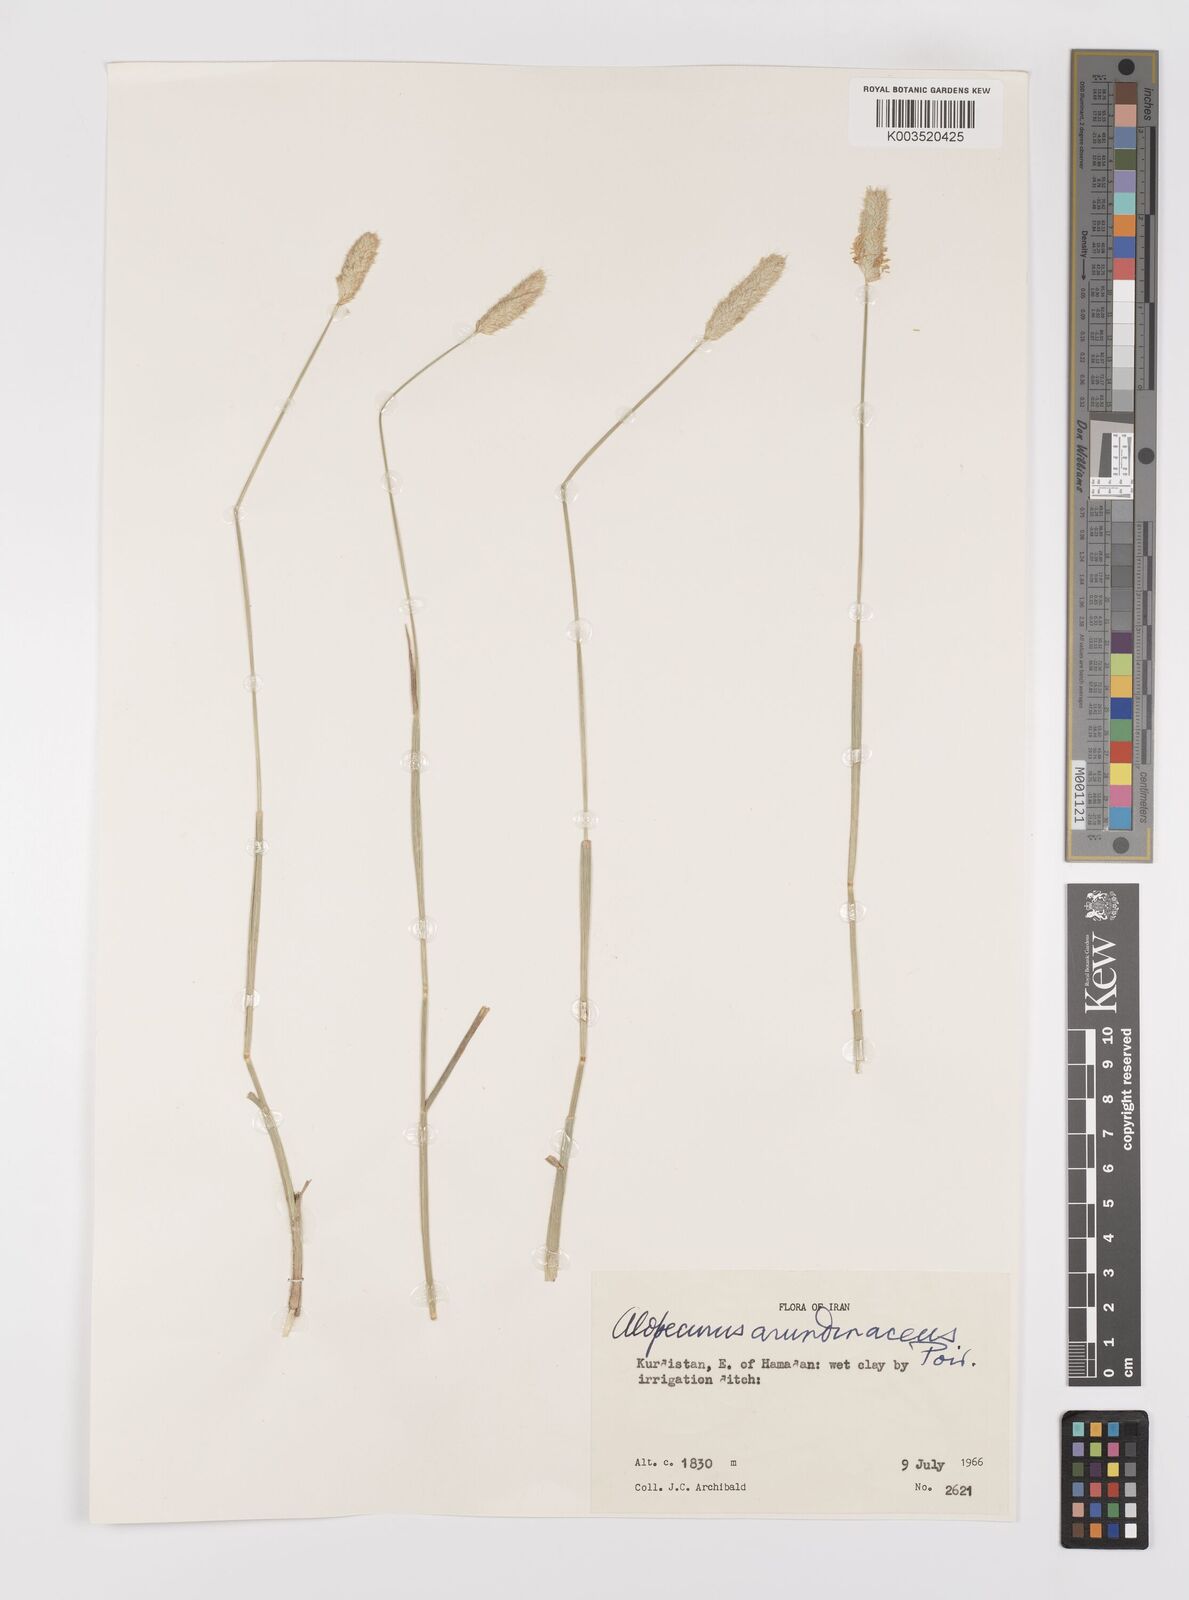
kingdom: Plantae
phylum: Tracheophyta
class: Liliopsida
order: Poales
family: Poaceae
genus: Alopecurus
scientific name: Alopecurus arundinaceus
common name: Creeping meadow foxtail
